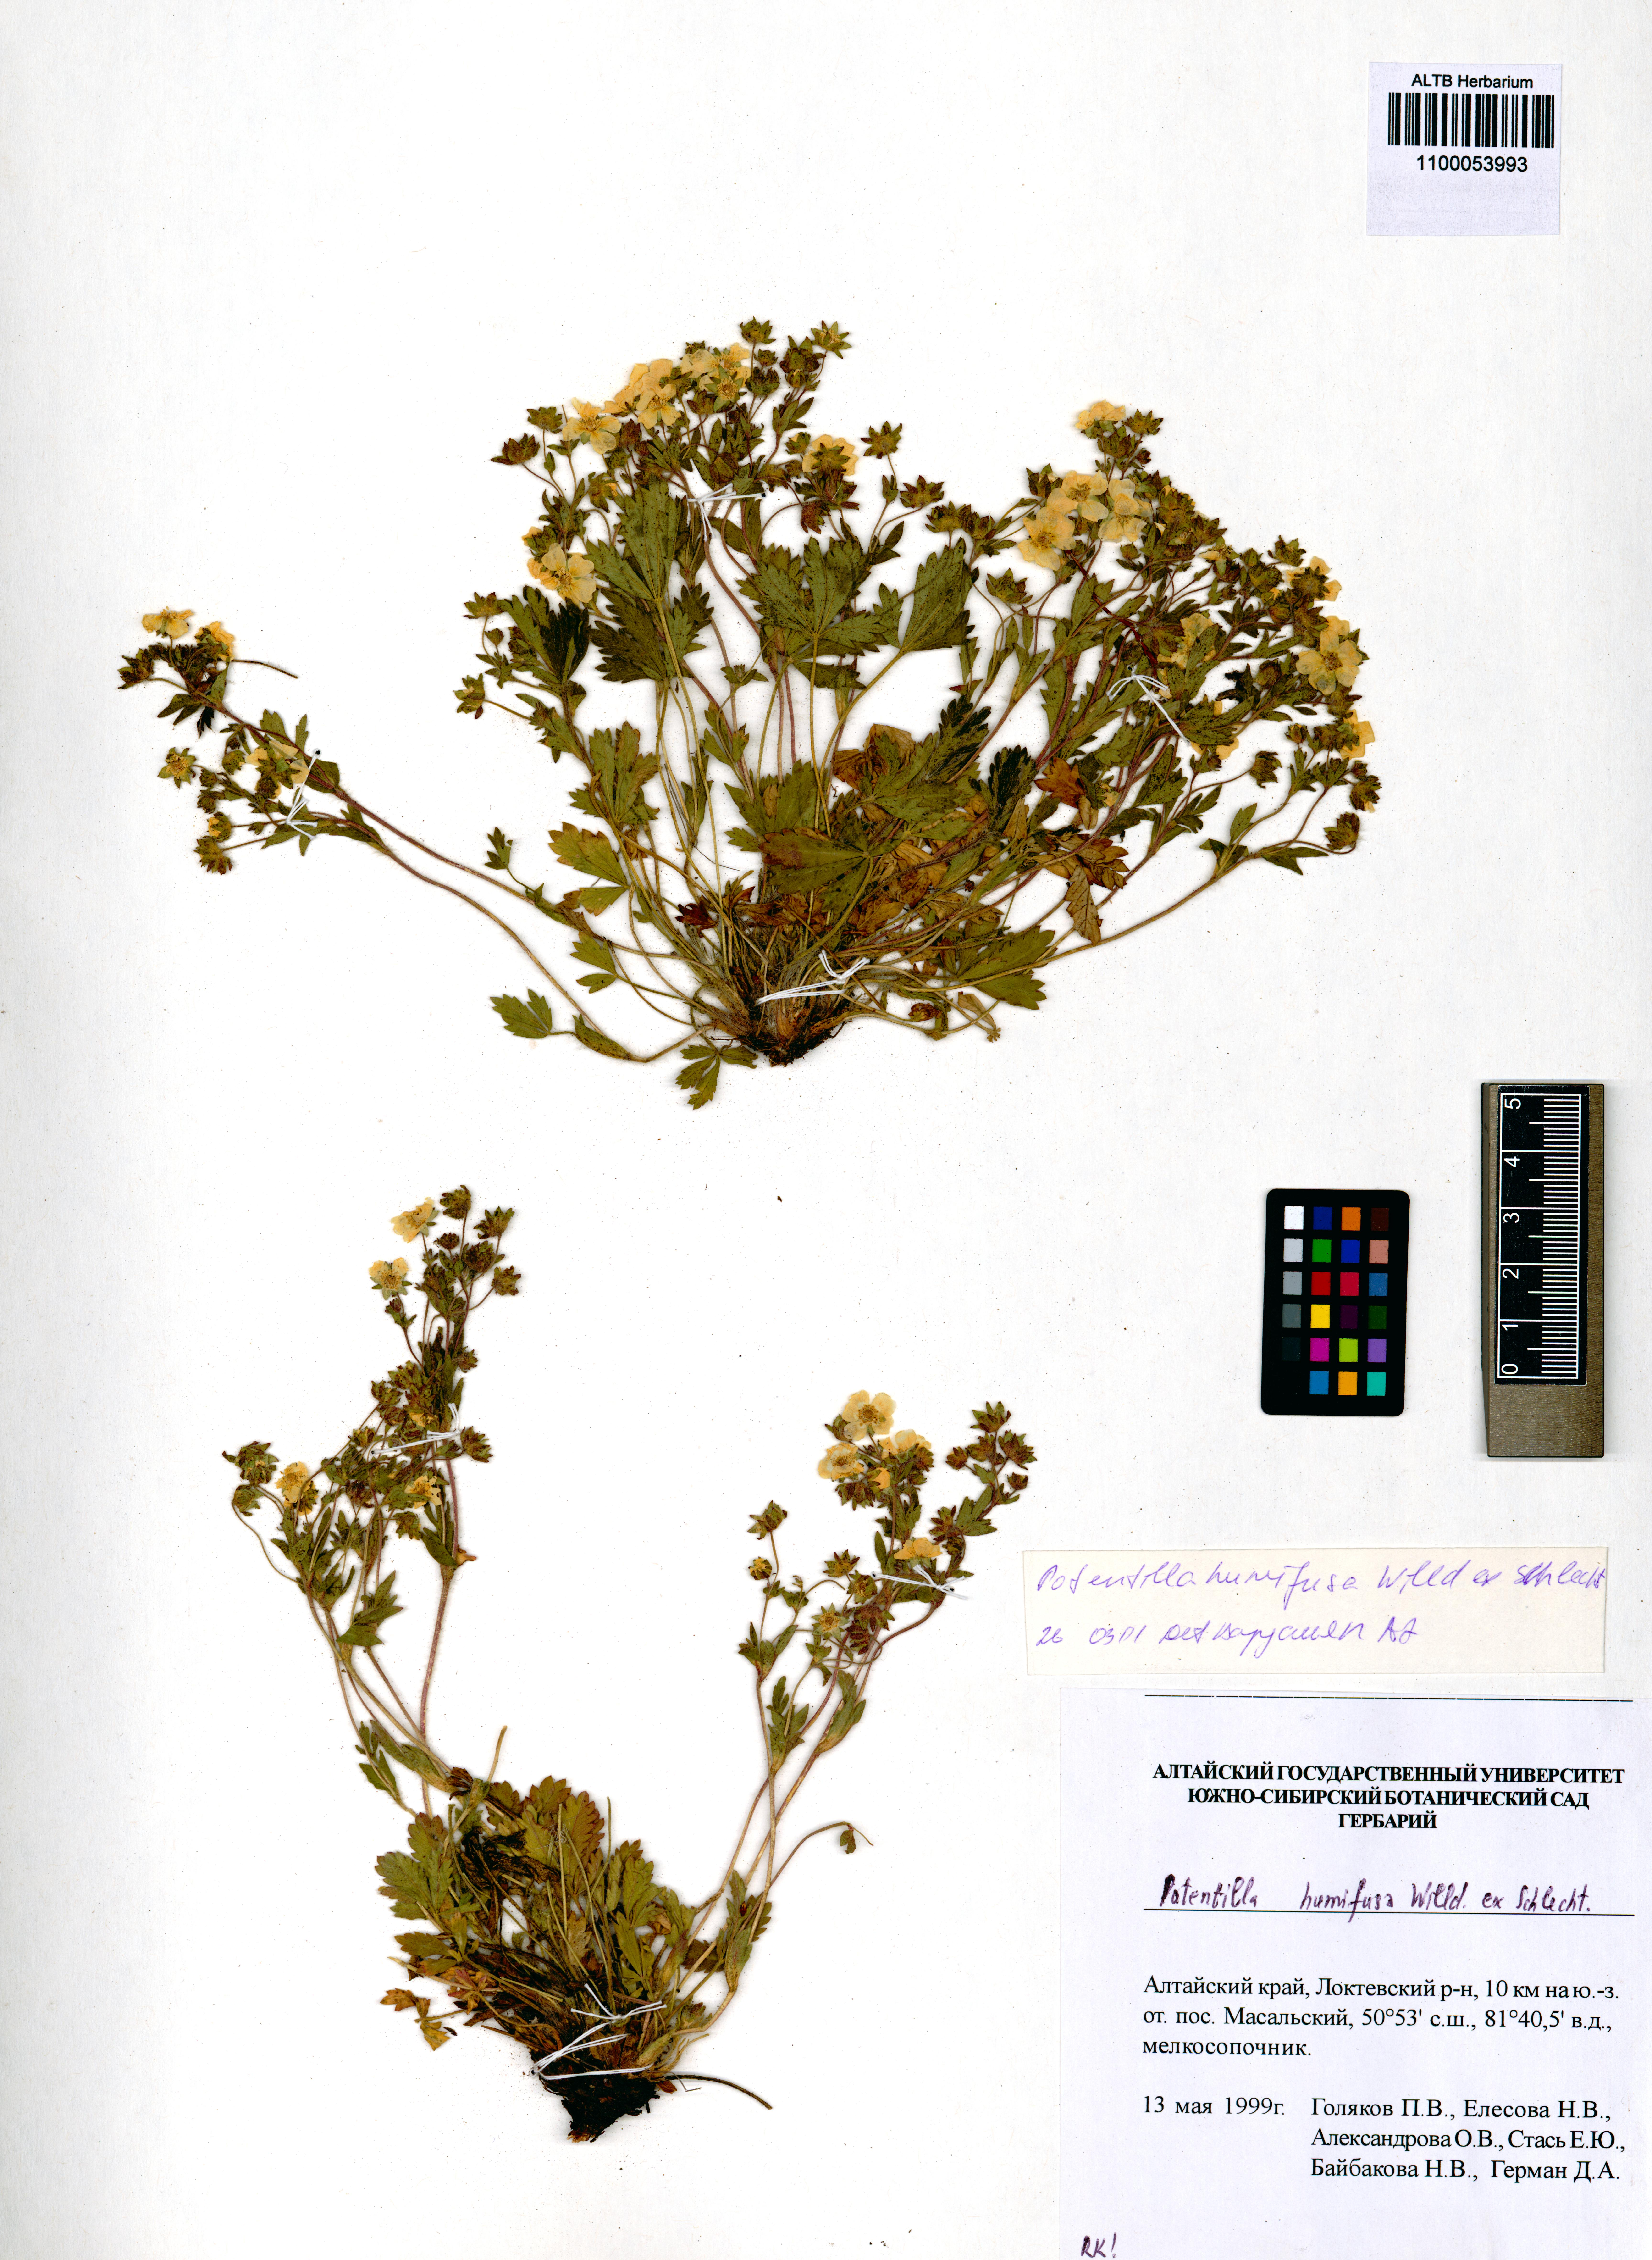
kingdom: Plantae
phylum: Tracheophyta
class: Magnoliopsida
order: Rosales
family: Rosaceae
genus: Potentilla
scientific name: Potentilla humifusa
